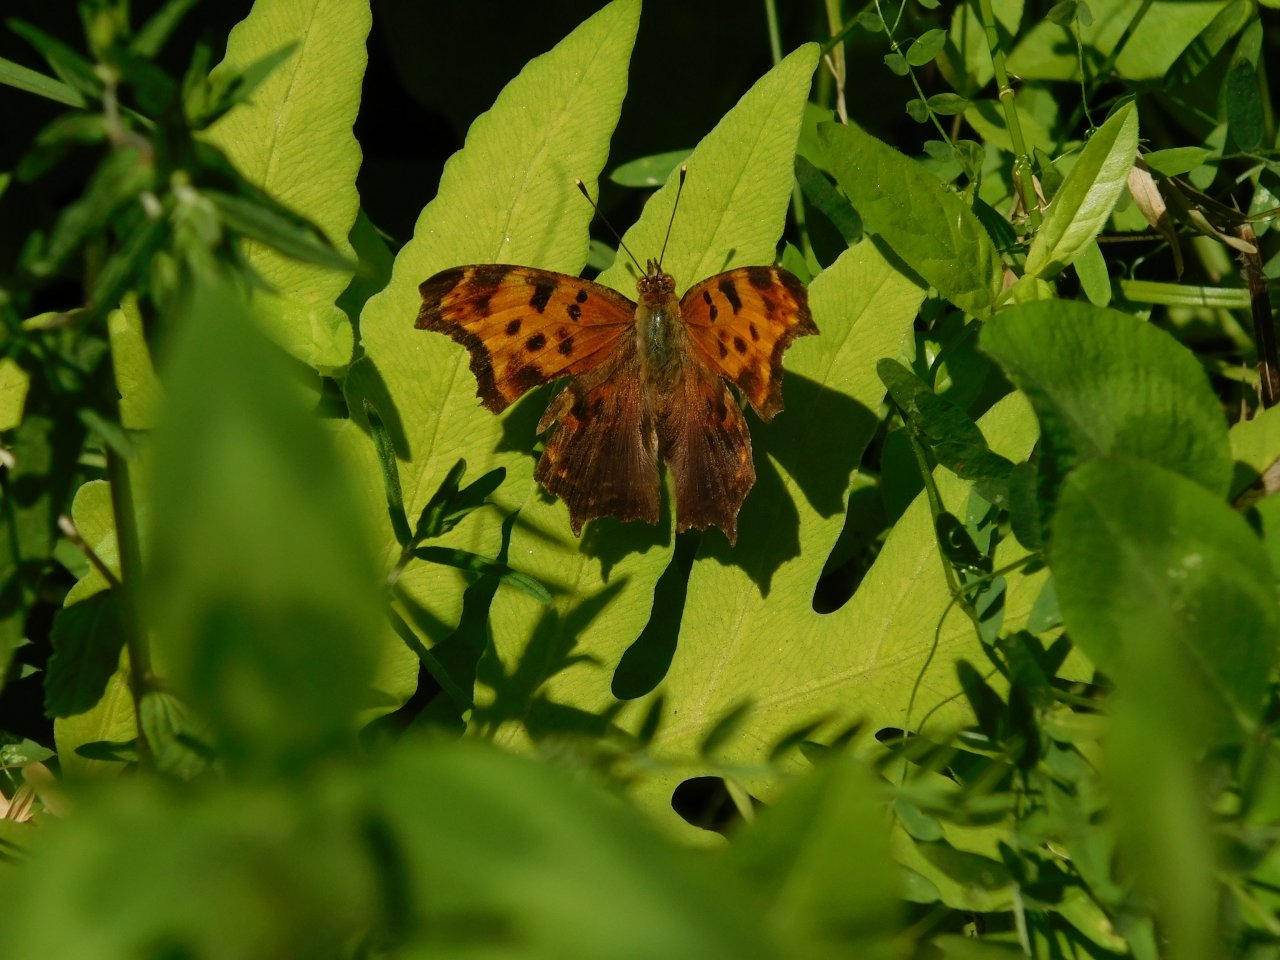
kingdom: Animalia
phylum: Arthropoda
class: Insecta
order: Lepidoptera
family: Nymphalidae
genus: Polygonia
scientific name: Polygonia
